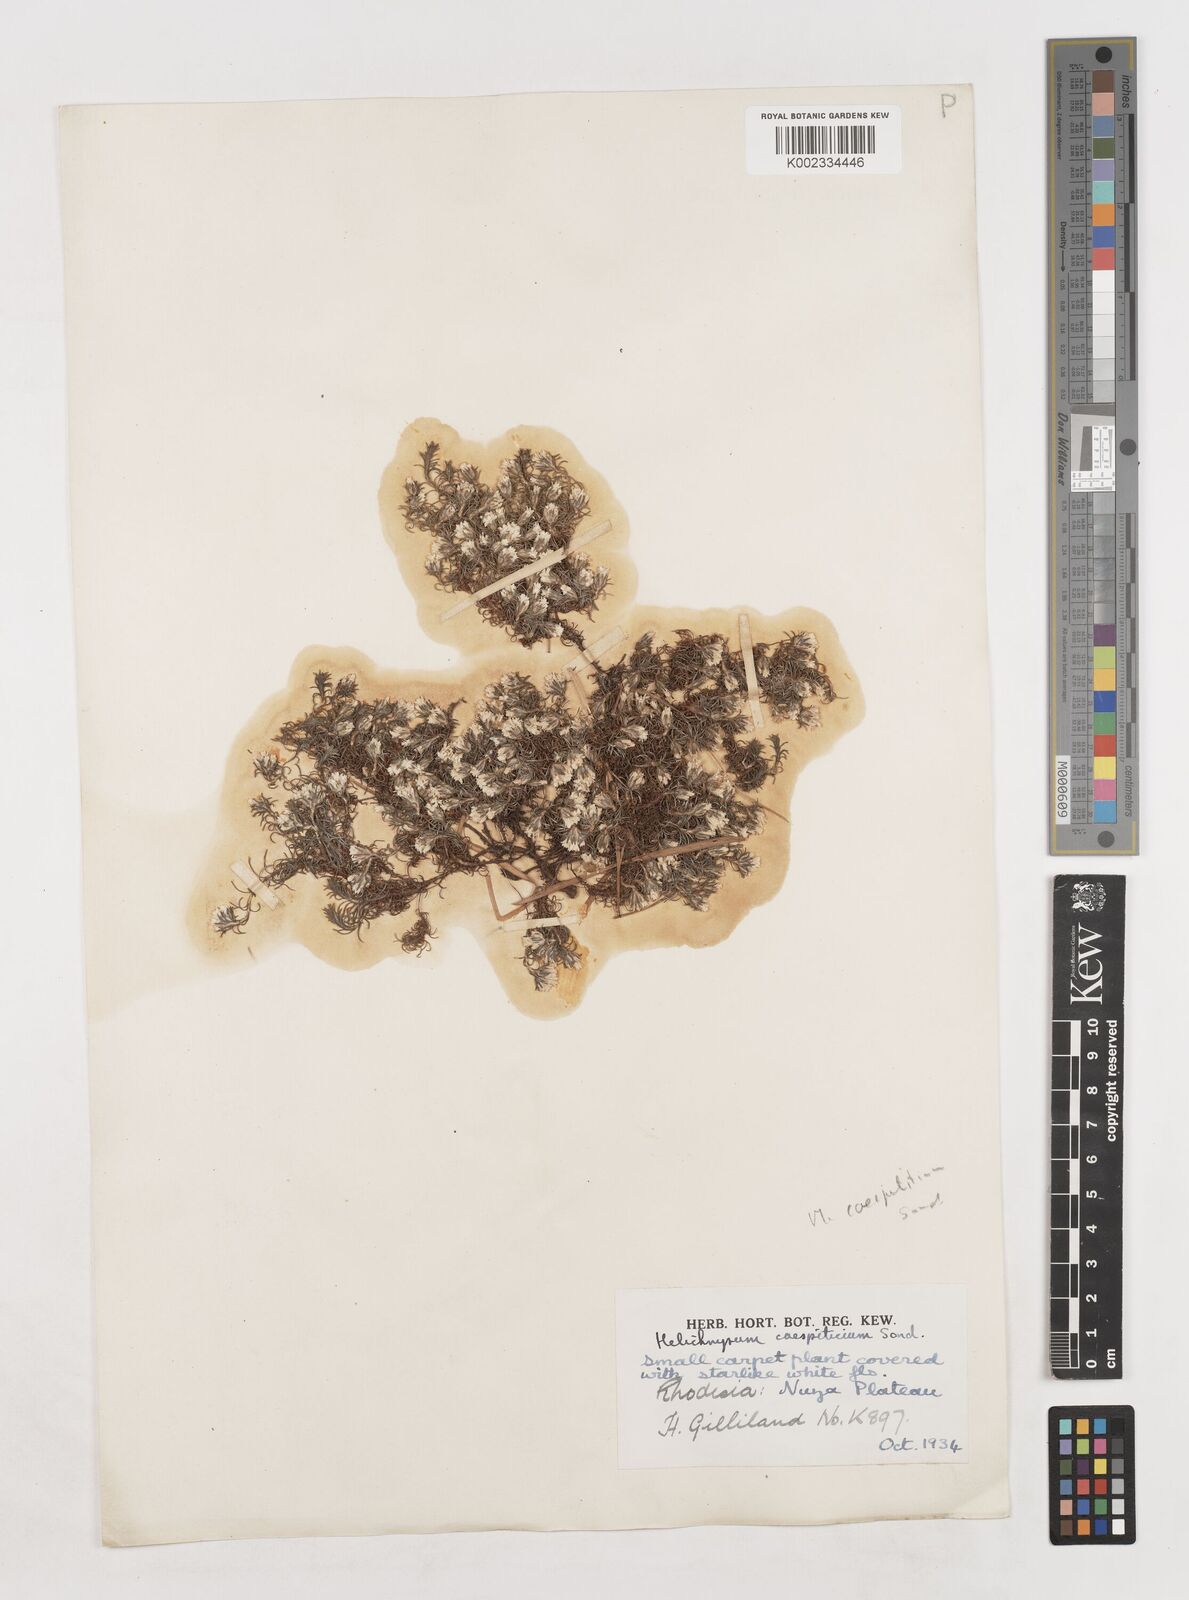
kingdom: Plantae
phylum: Tracheophyta
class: Magnoliopsida
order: Asterales
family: Asteraceae
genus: Helichrysum
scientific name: Helichrysum caespititium
